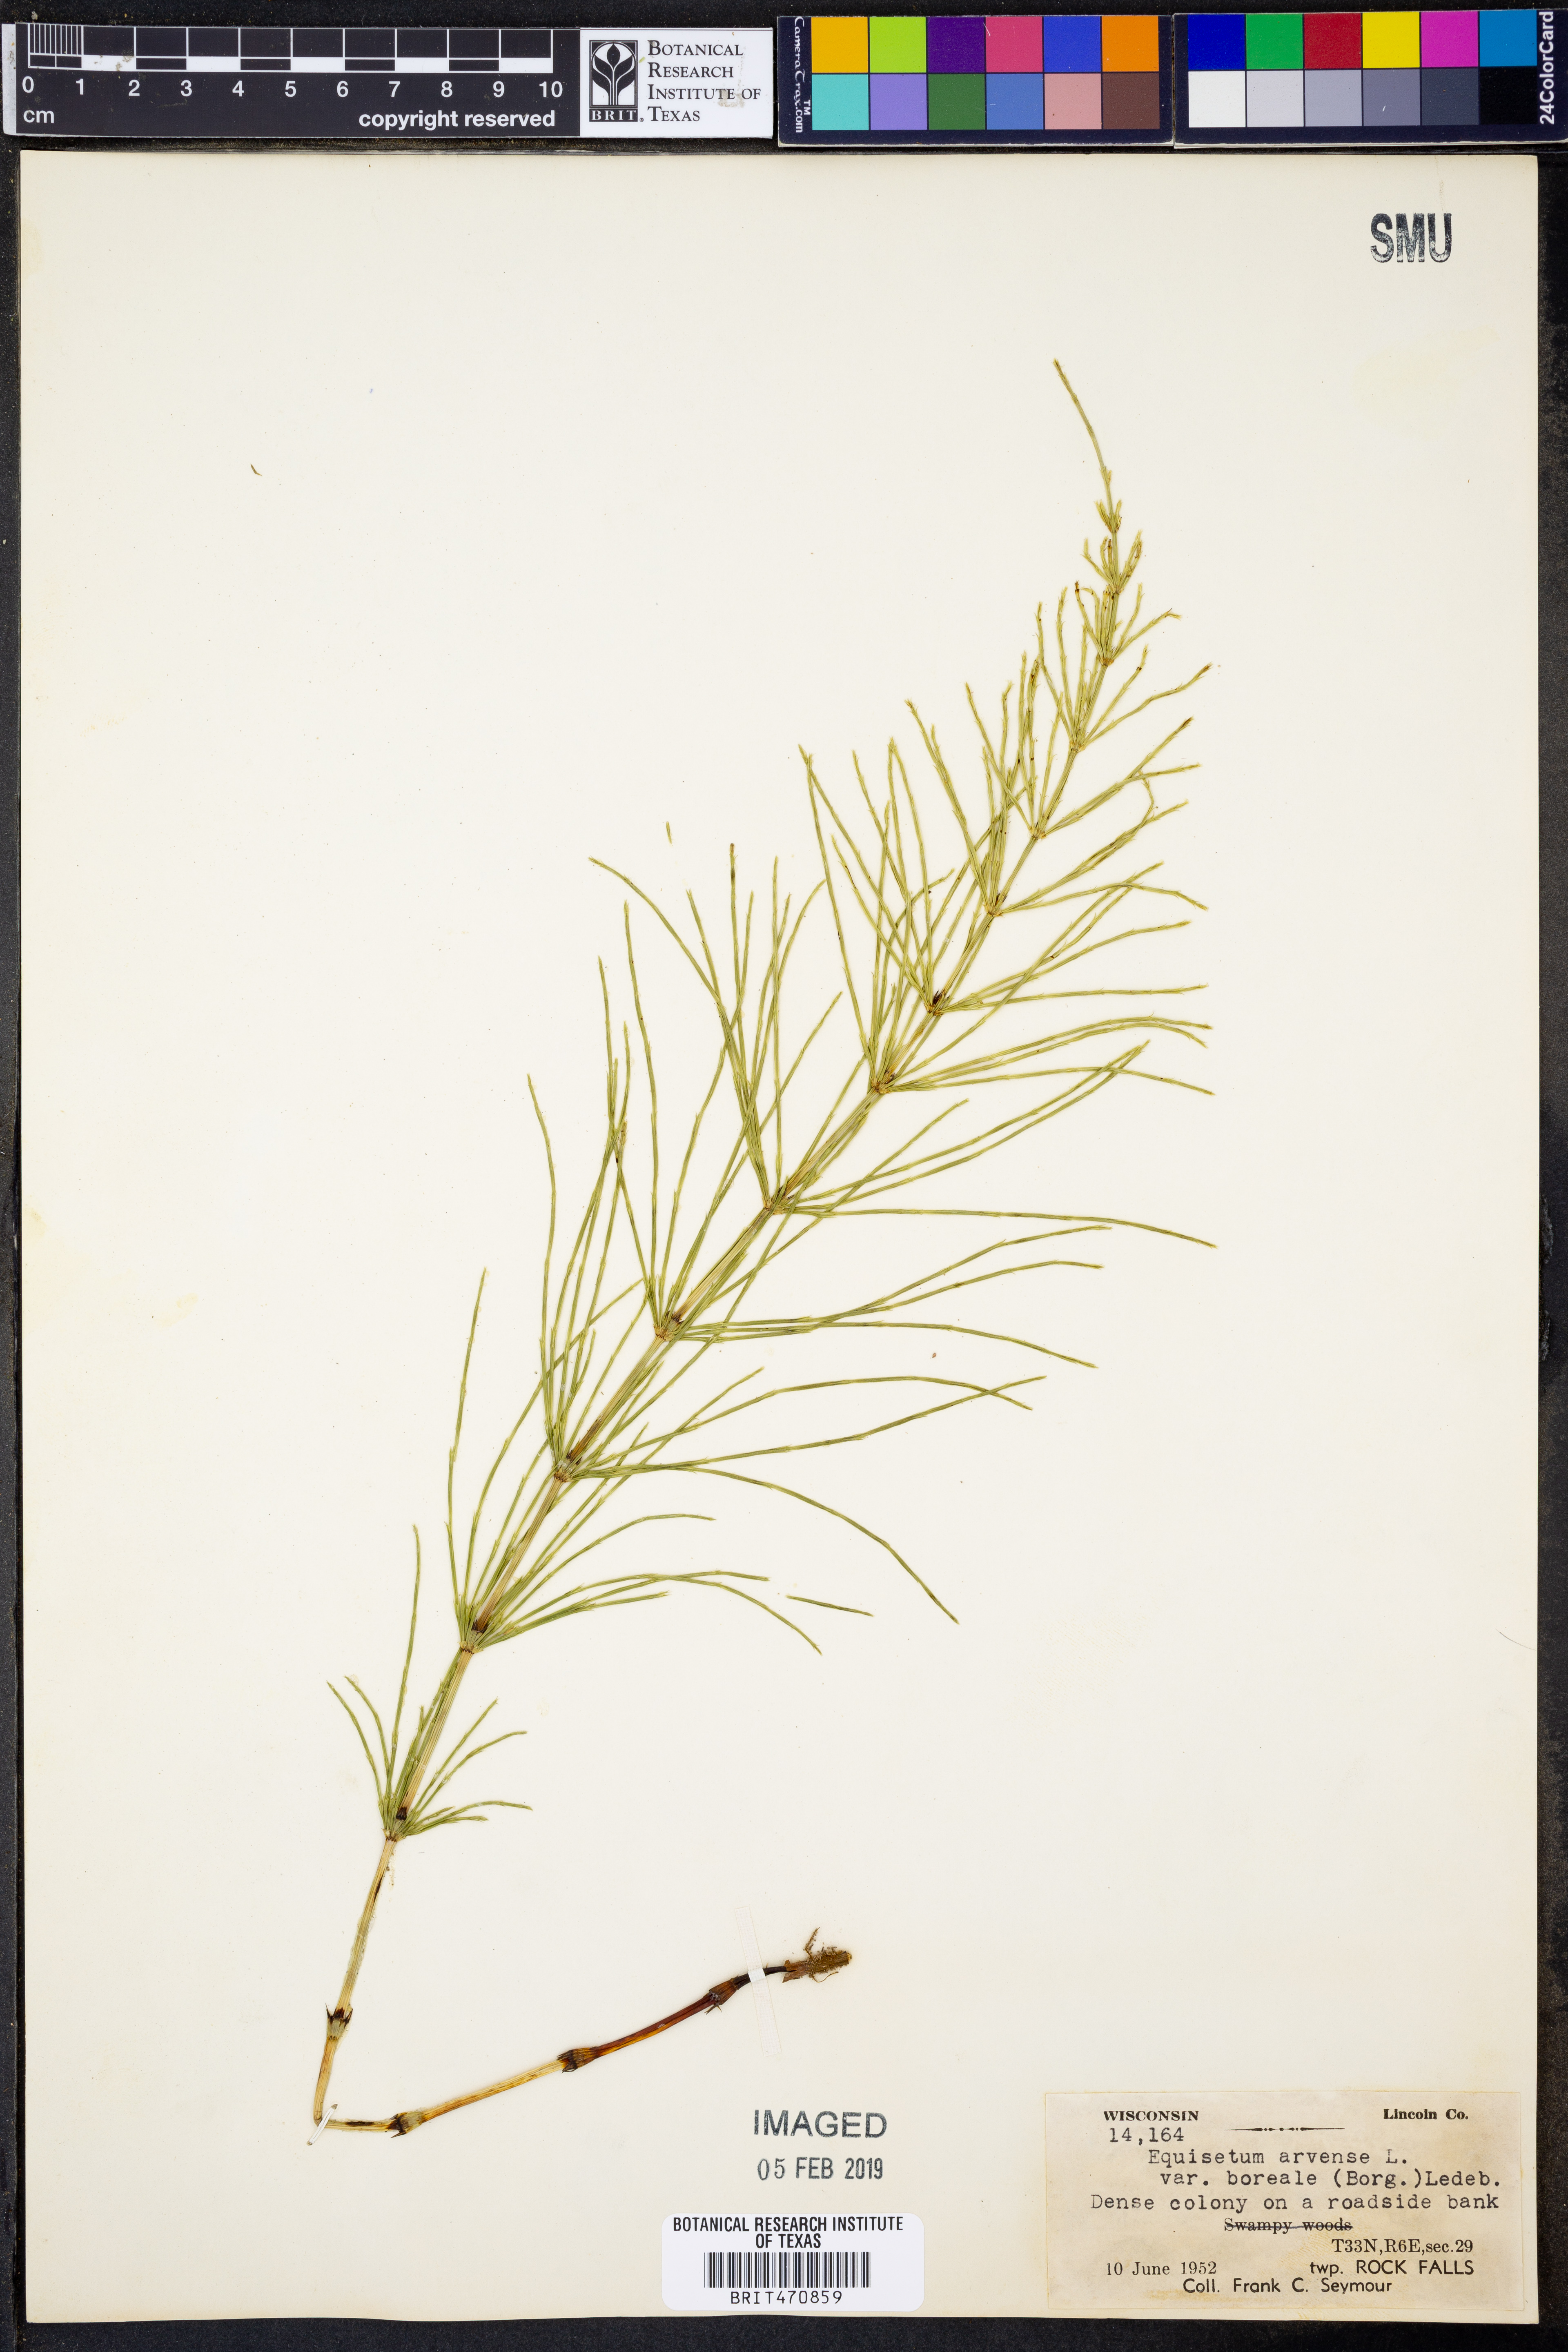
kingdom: Plantae
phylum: Tracheophyta
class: Polypodiopsida
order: Equisetales
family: Equisetaceae
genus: Equisetum
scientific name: Equisetum arvense
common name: Field horsetail
